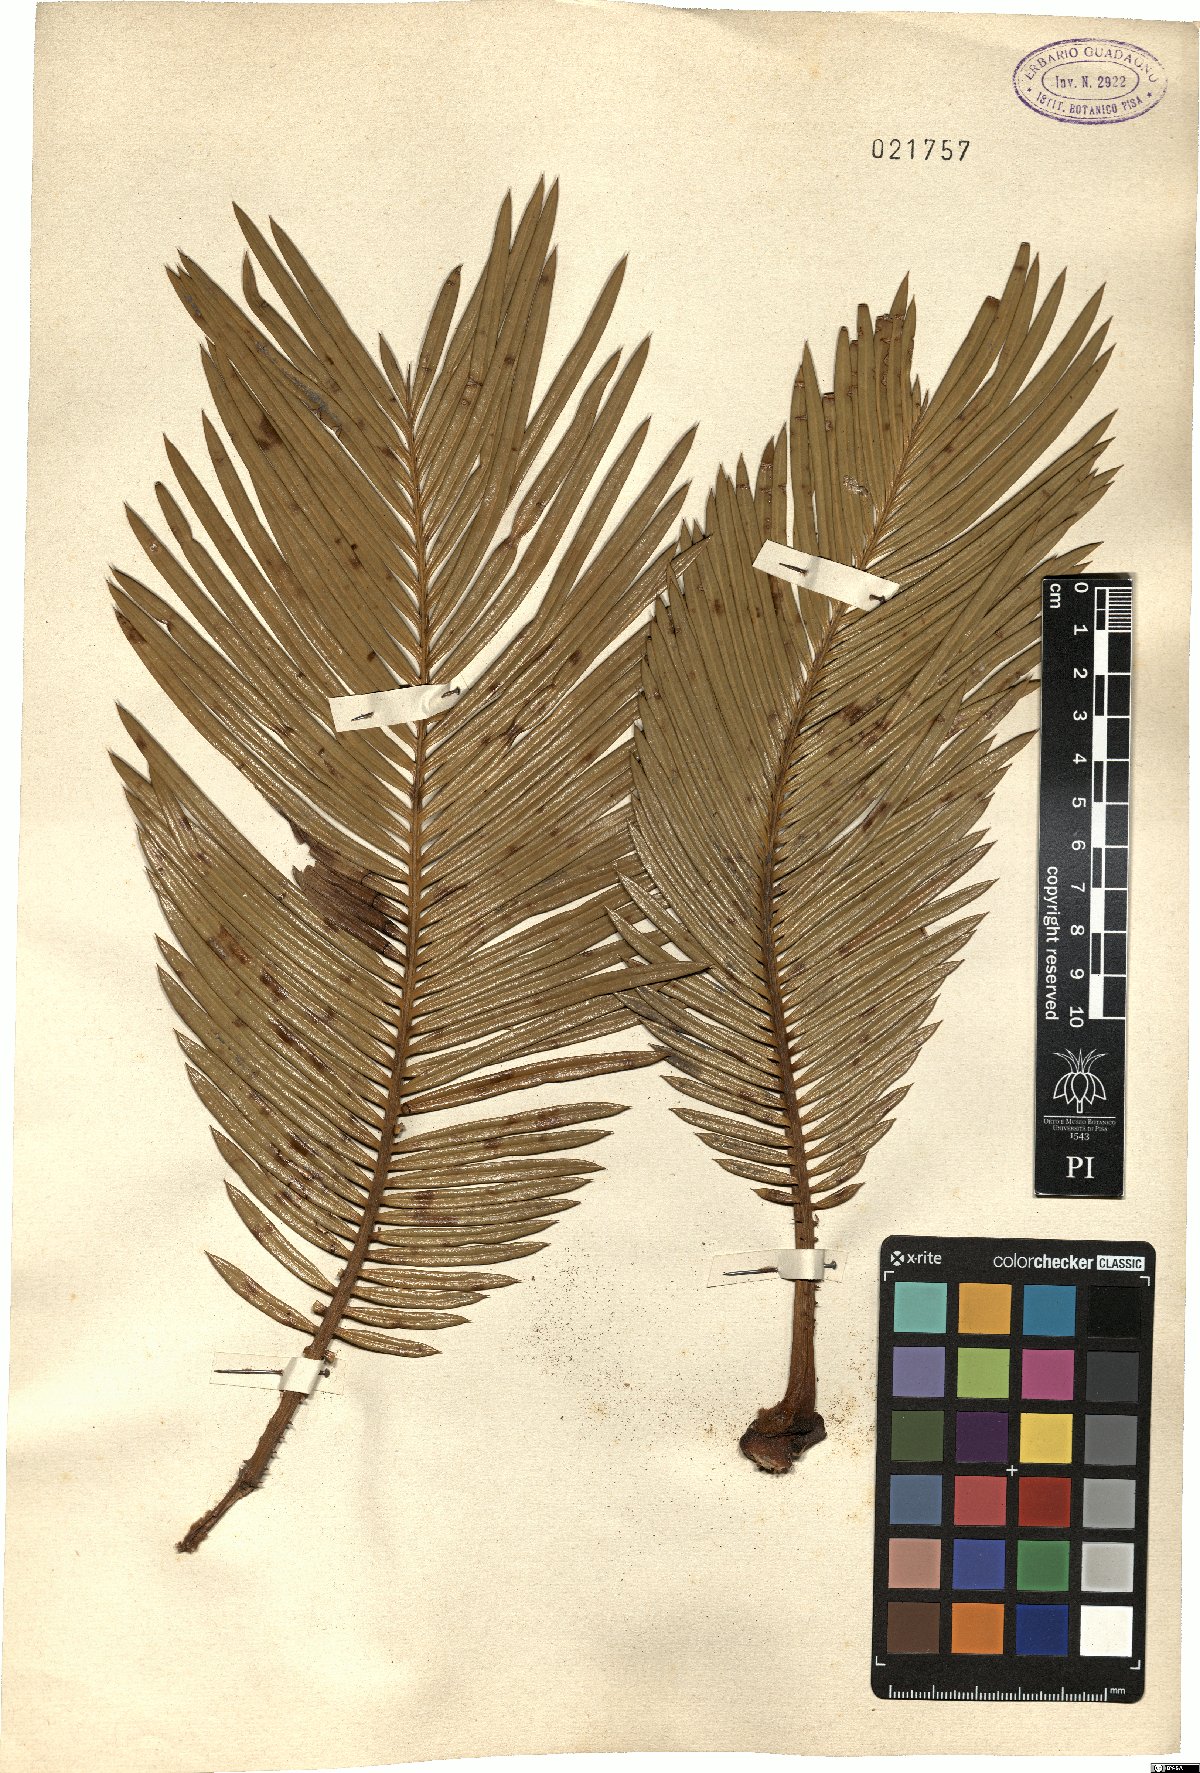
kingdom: Plantae
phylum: Tracheophyta
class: Cycadopsida
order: Cycadales
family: Cycadaceae
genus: Cycas
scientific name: Cycas
